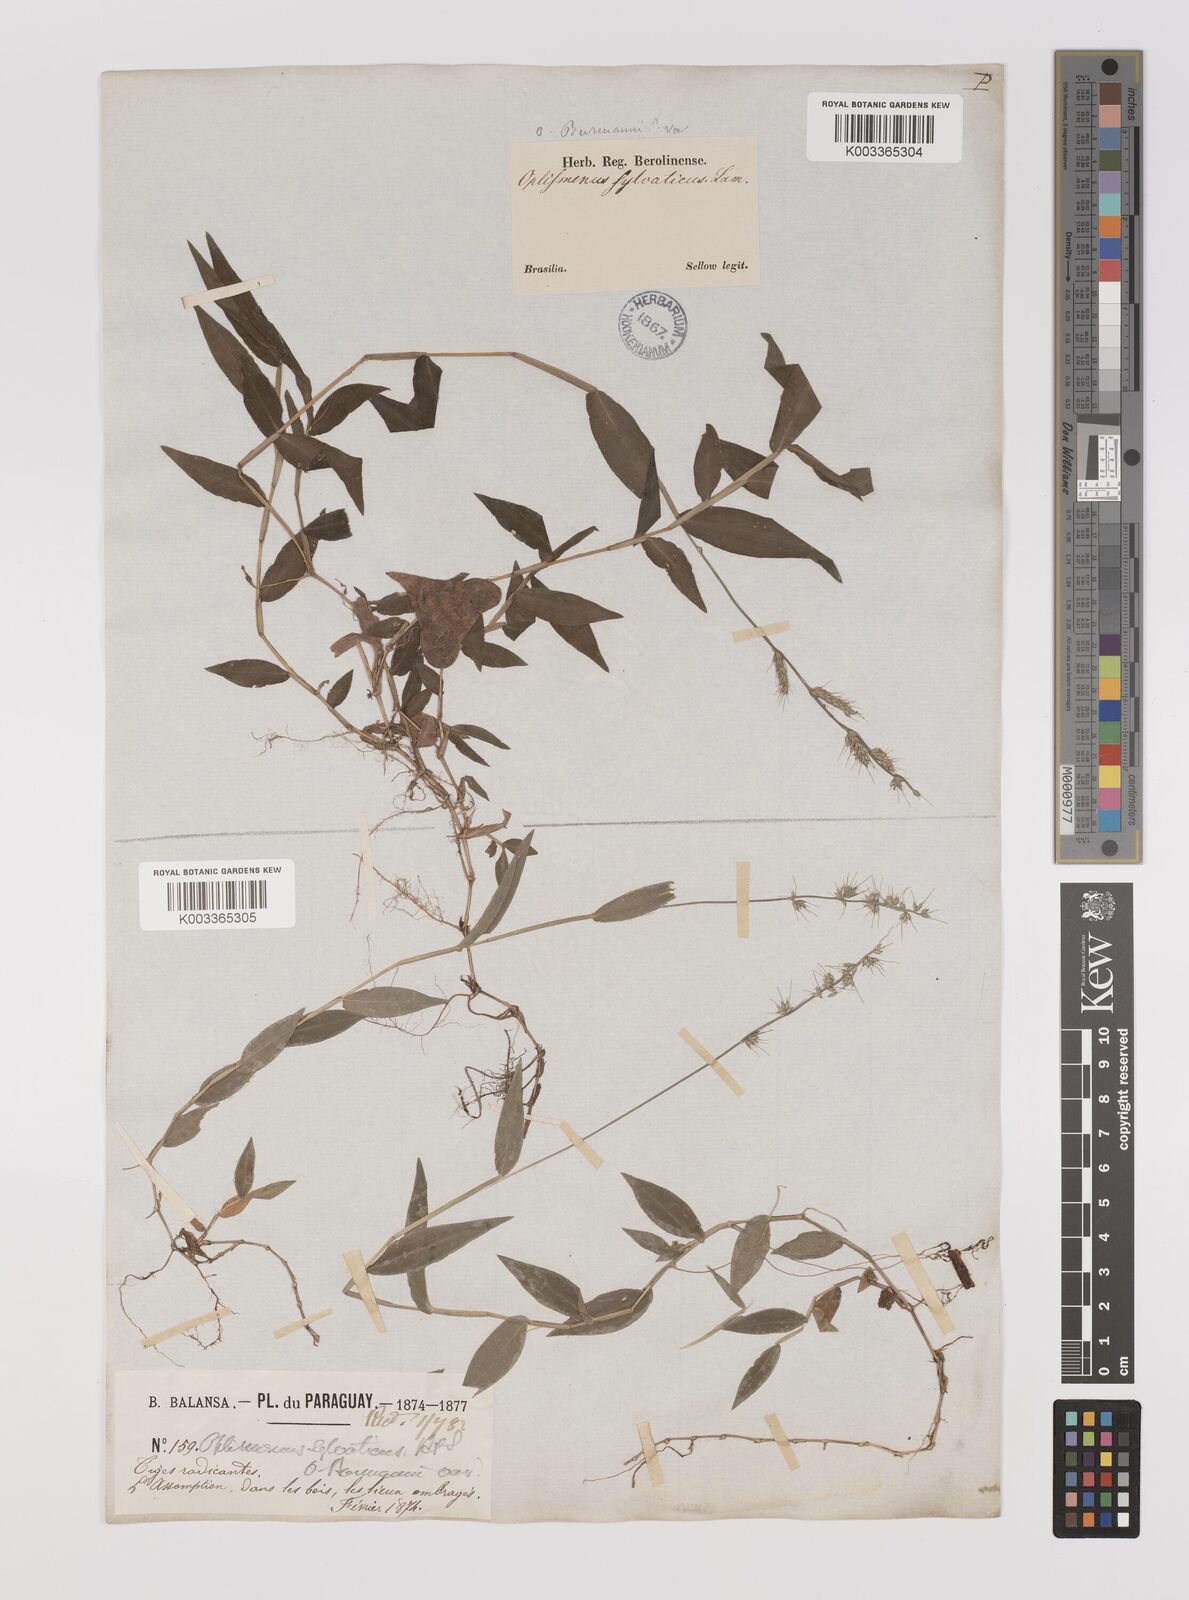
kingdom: Plantae
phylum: Tracheophyta
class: Liliopsida
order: Poales
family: Poaceae
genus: Oplismenus
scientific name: Oplismenus hirtellus
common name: Basketgrass
